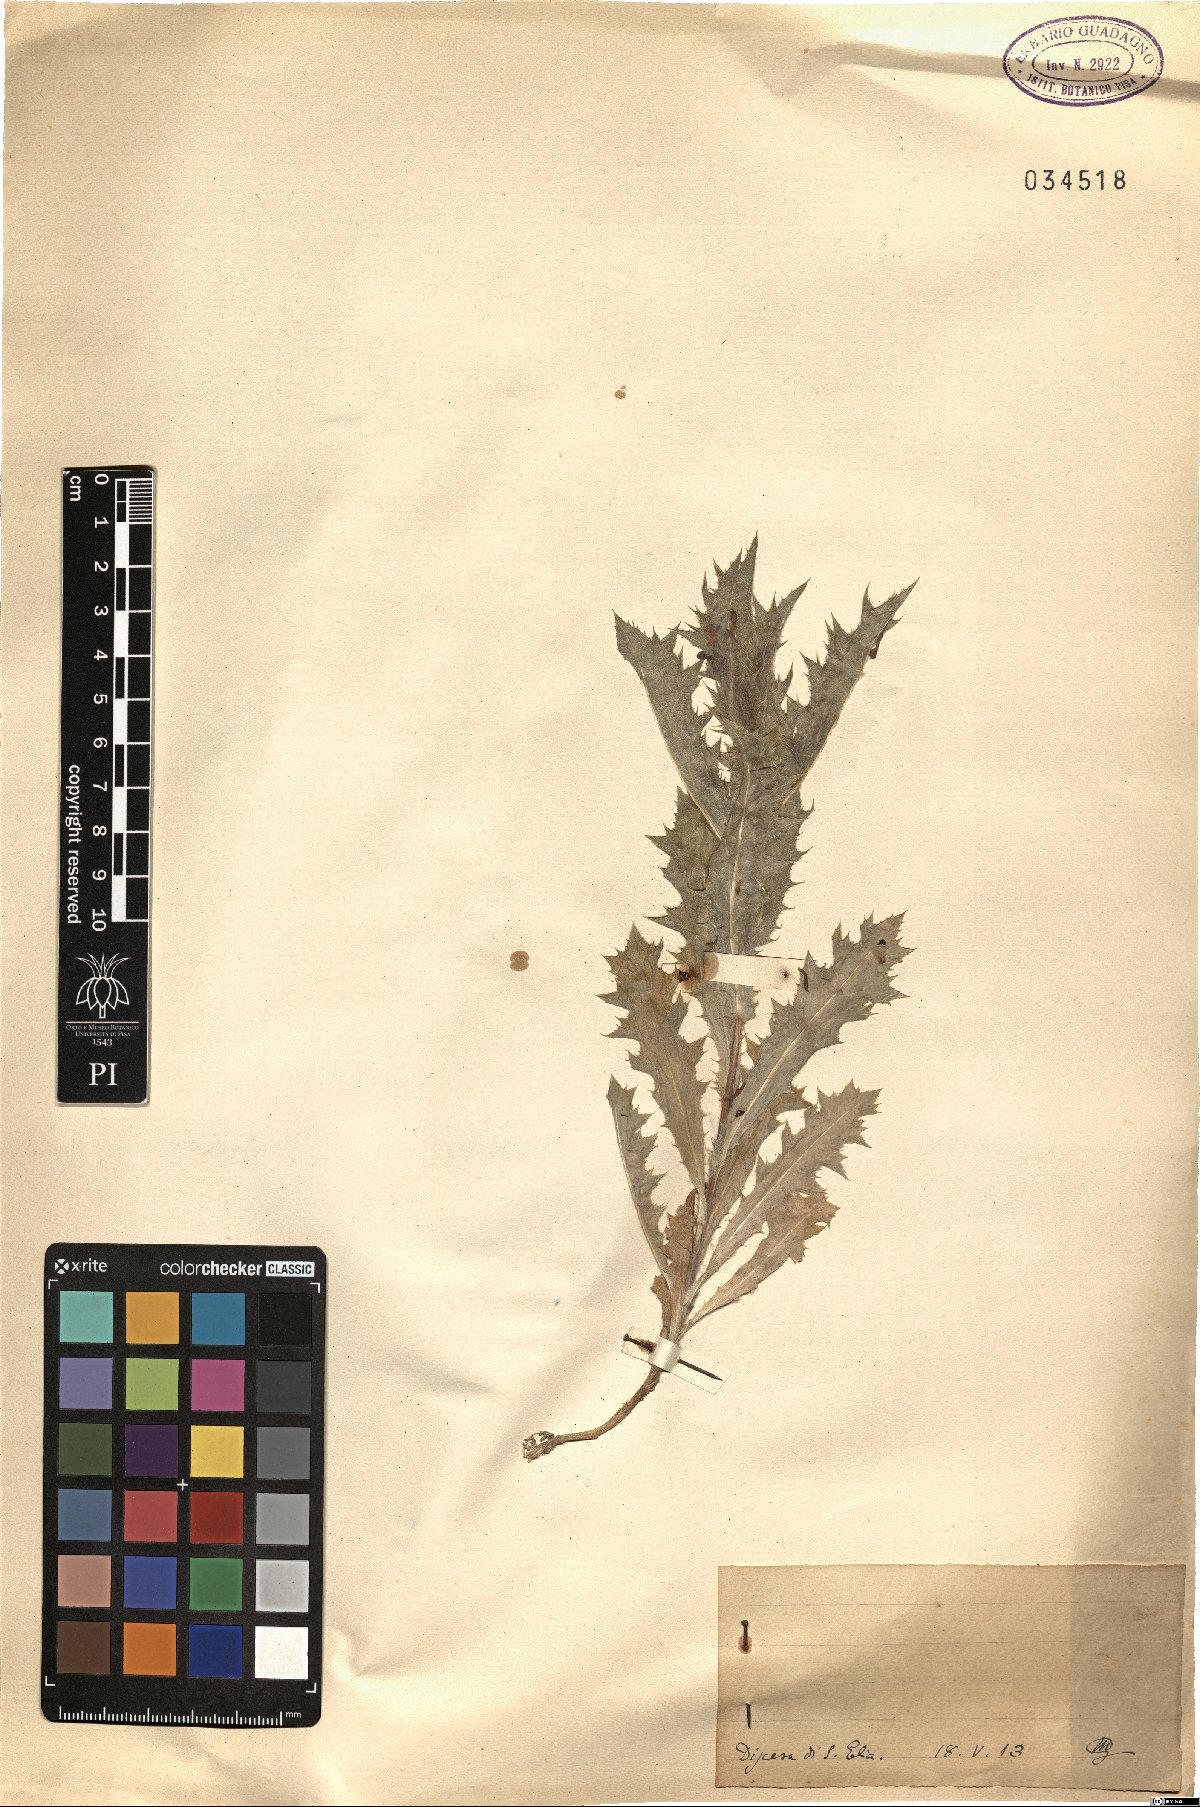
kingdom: Plantae
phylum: Tracheophyta
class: Magnoliopsida
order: Asterales
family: Asteraceae
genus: Scolymus
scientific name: Scolymus
